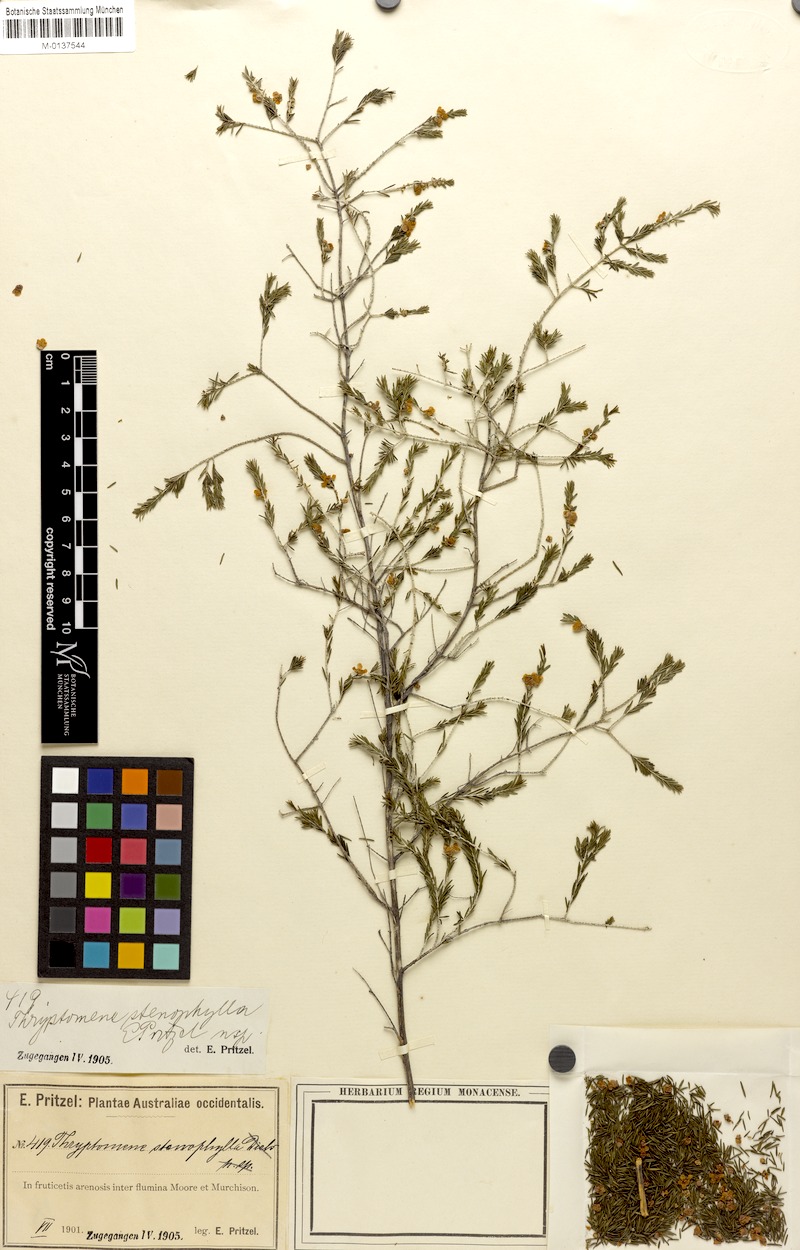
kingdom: Plantae
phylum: Tracheophyta
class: Magnoliopsida
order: Myrtales
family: Myrtaceae
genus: Thryptomene
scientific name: Thryptomene stenophylla
